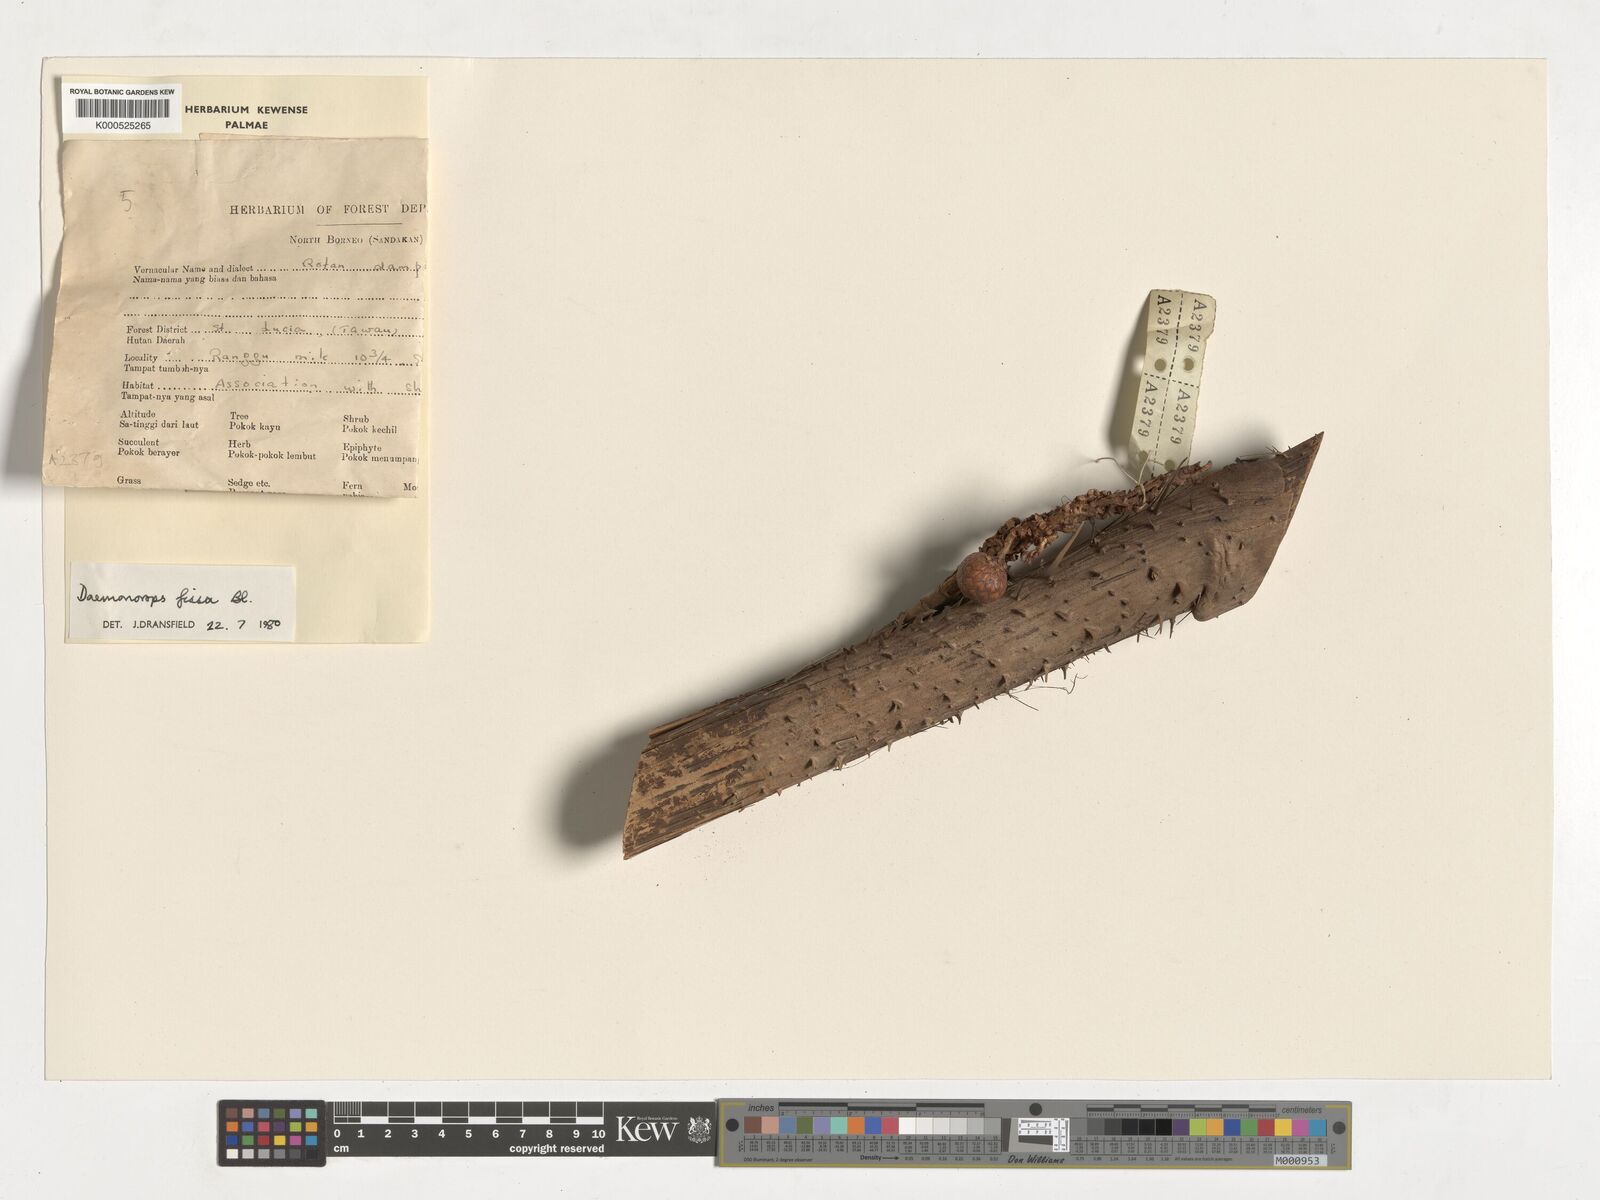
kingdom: Plantae
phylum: Tracheophyta
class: Liliopsida
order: Arecales
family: Arecaceae
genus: Calamus
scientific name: Calamus melanochaetes
